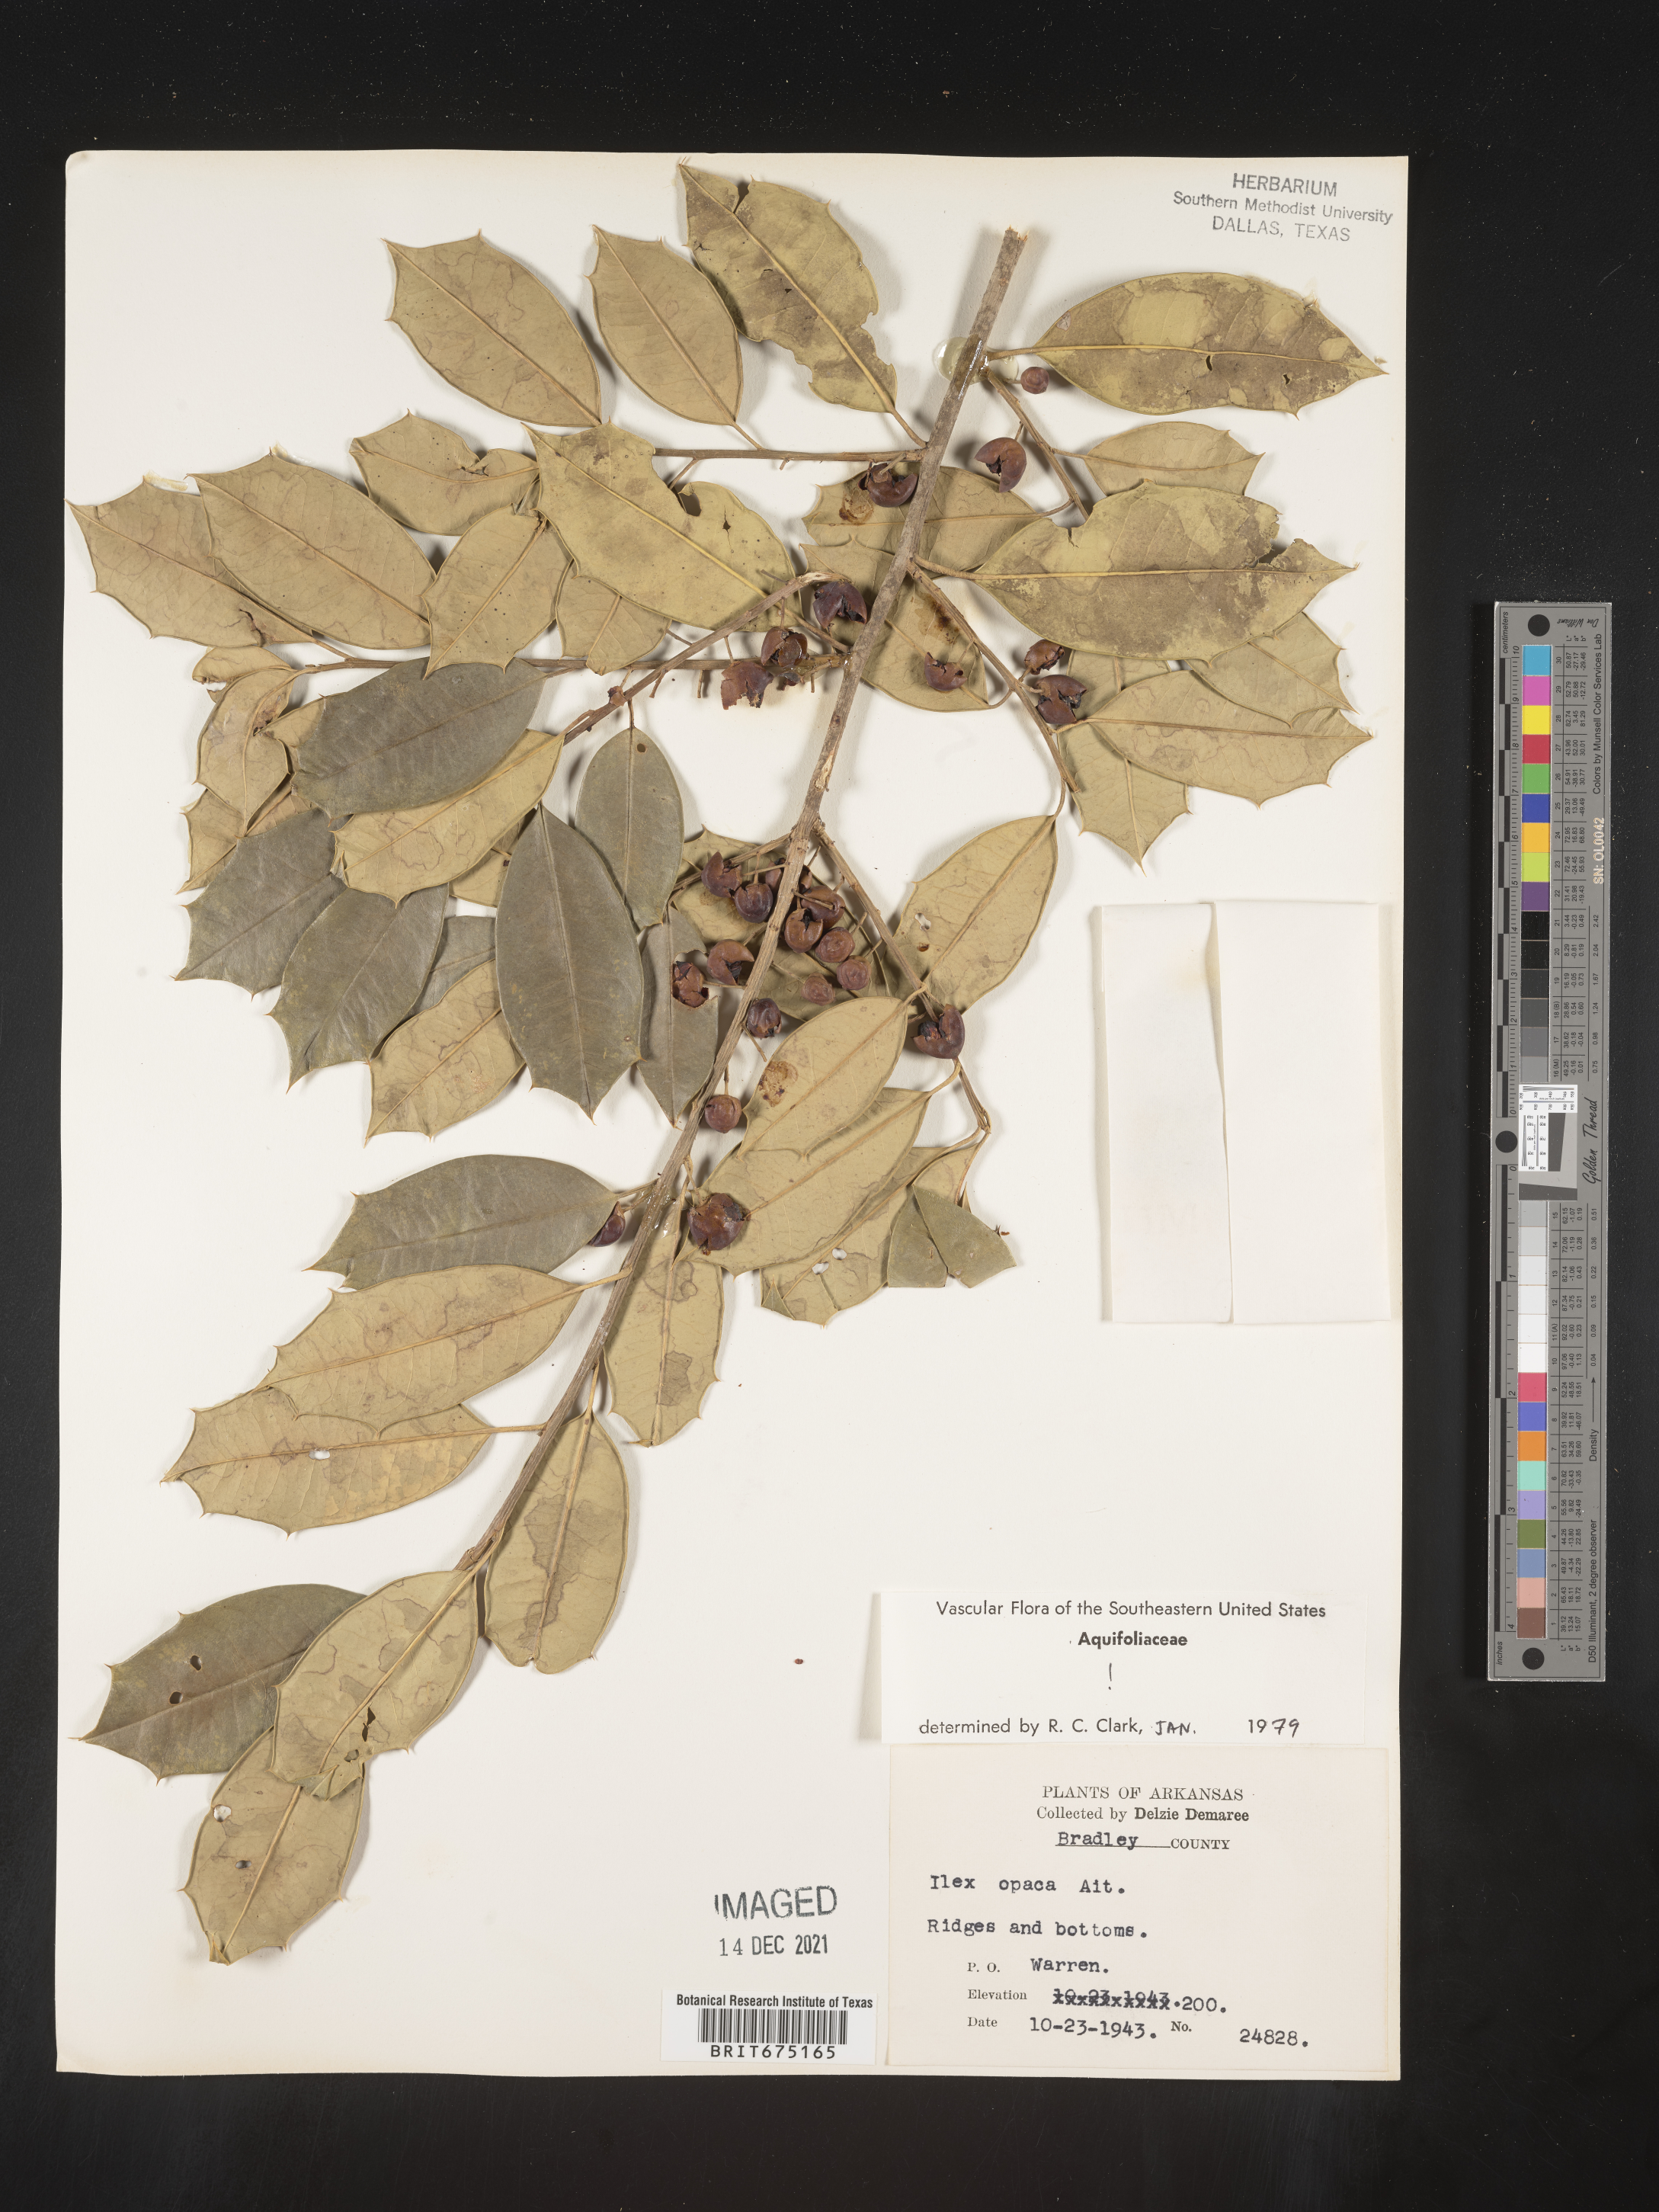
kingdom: Plantae
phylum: Tracheophyta
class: Magnoliopsida
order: Aquifoliales
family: Aquifoliaceae
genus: Ilex
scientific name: Ilex opaca
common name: American holly
